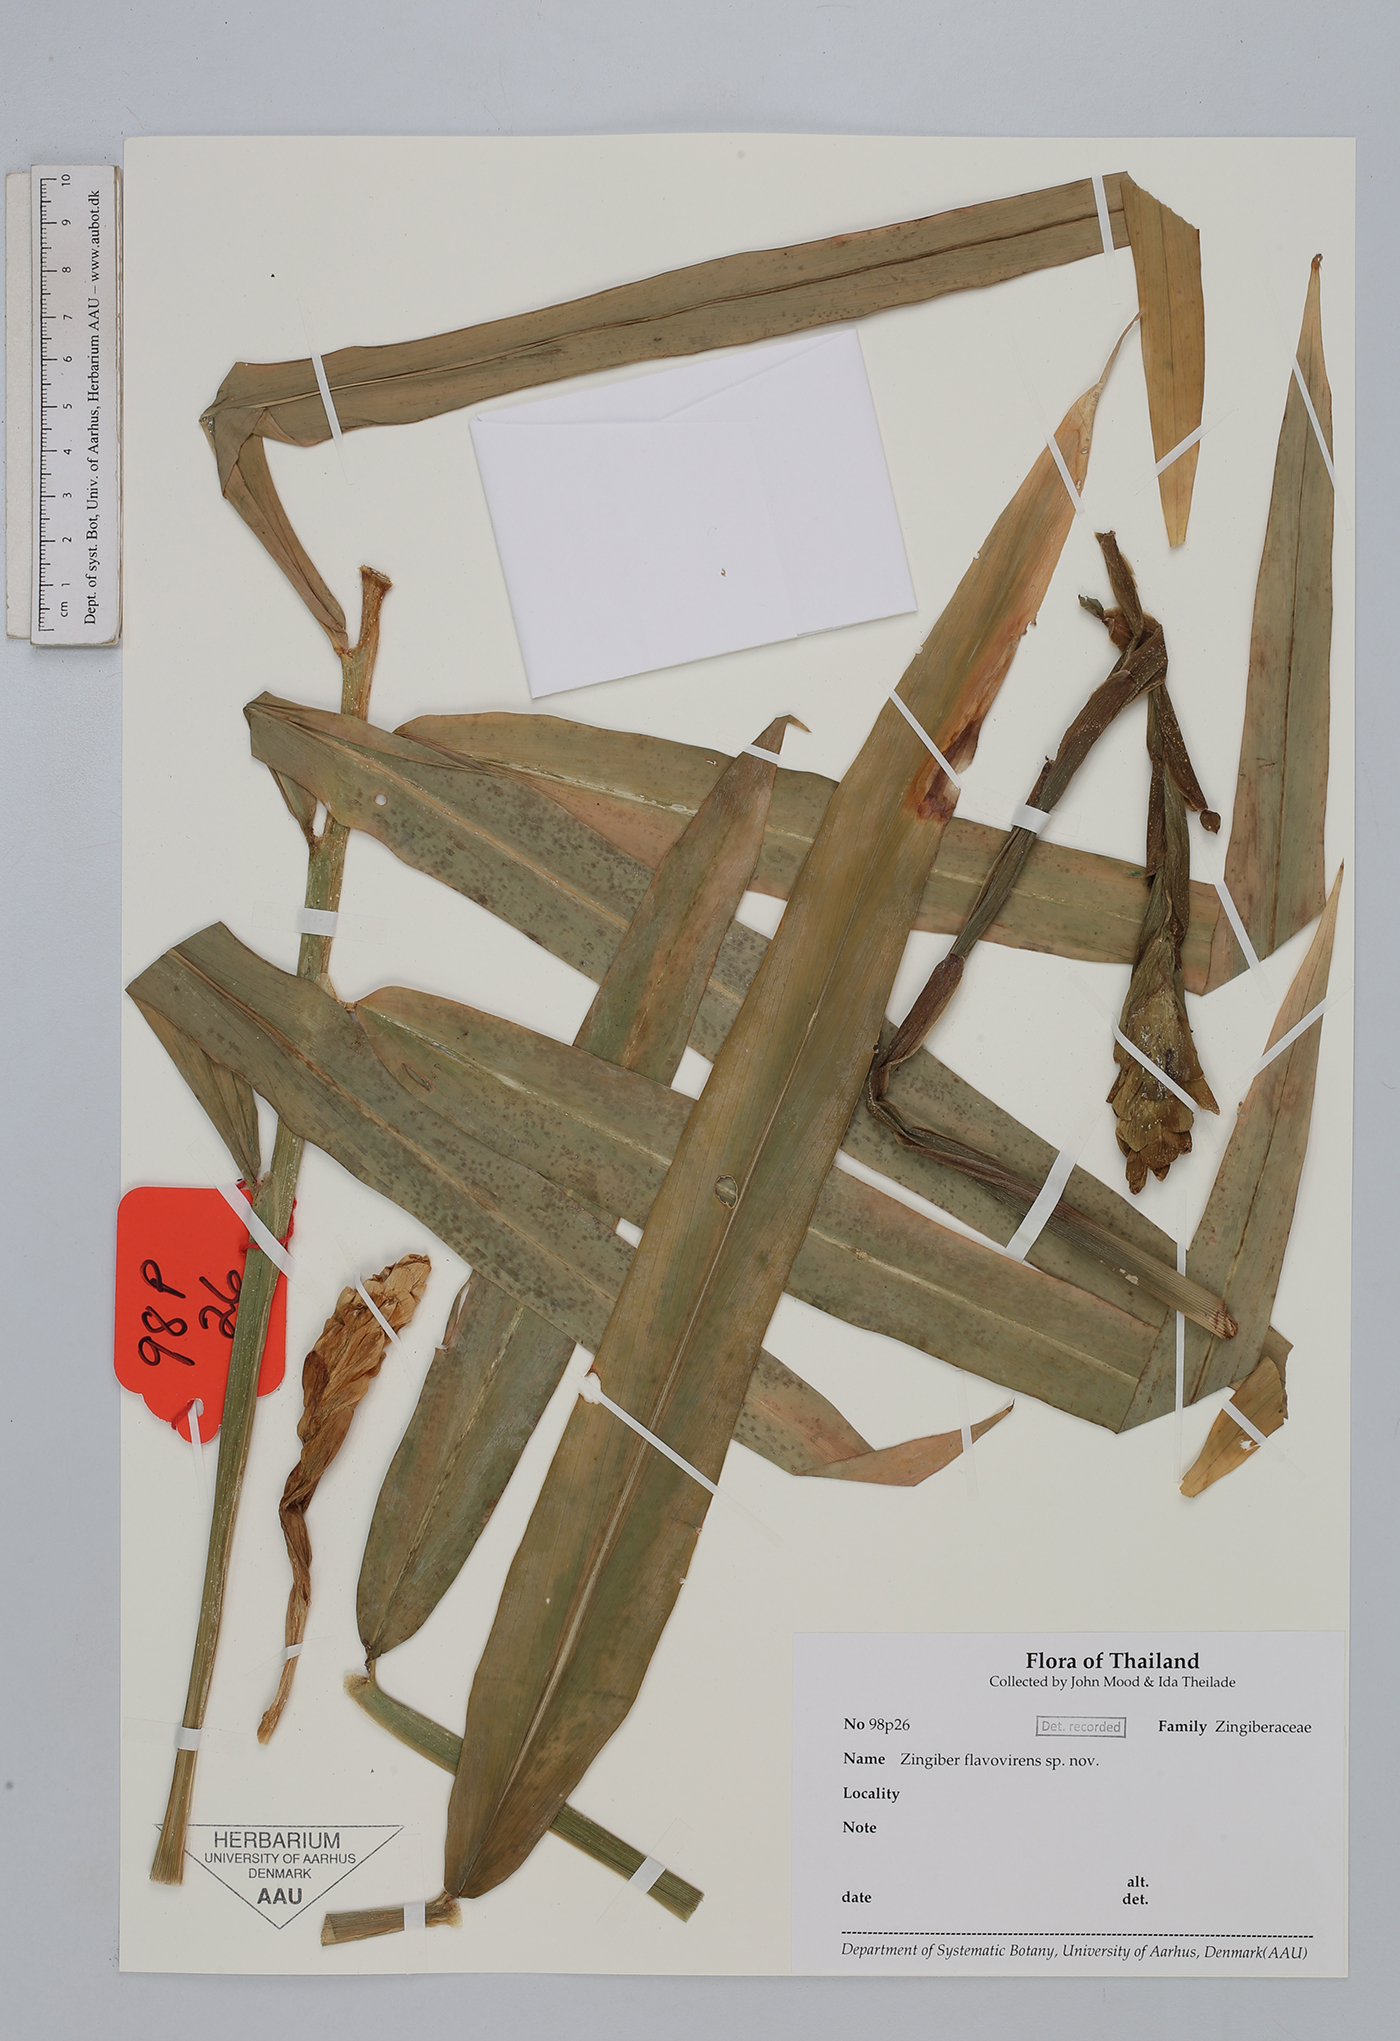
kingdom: Plantae
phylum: Tracheophyta
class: Liliopsida
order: Zingiberales
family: Zingiberaceae
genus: Zingiber
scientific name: Zingiber flavovirens
